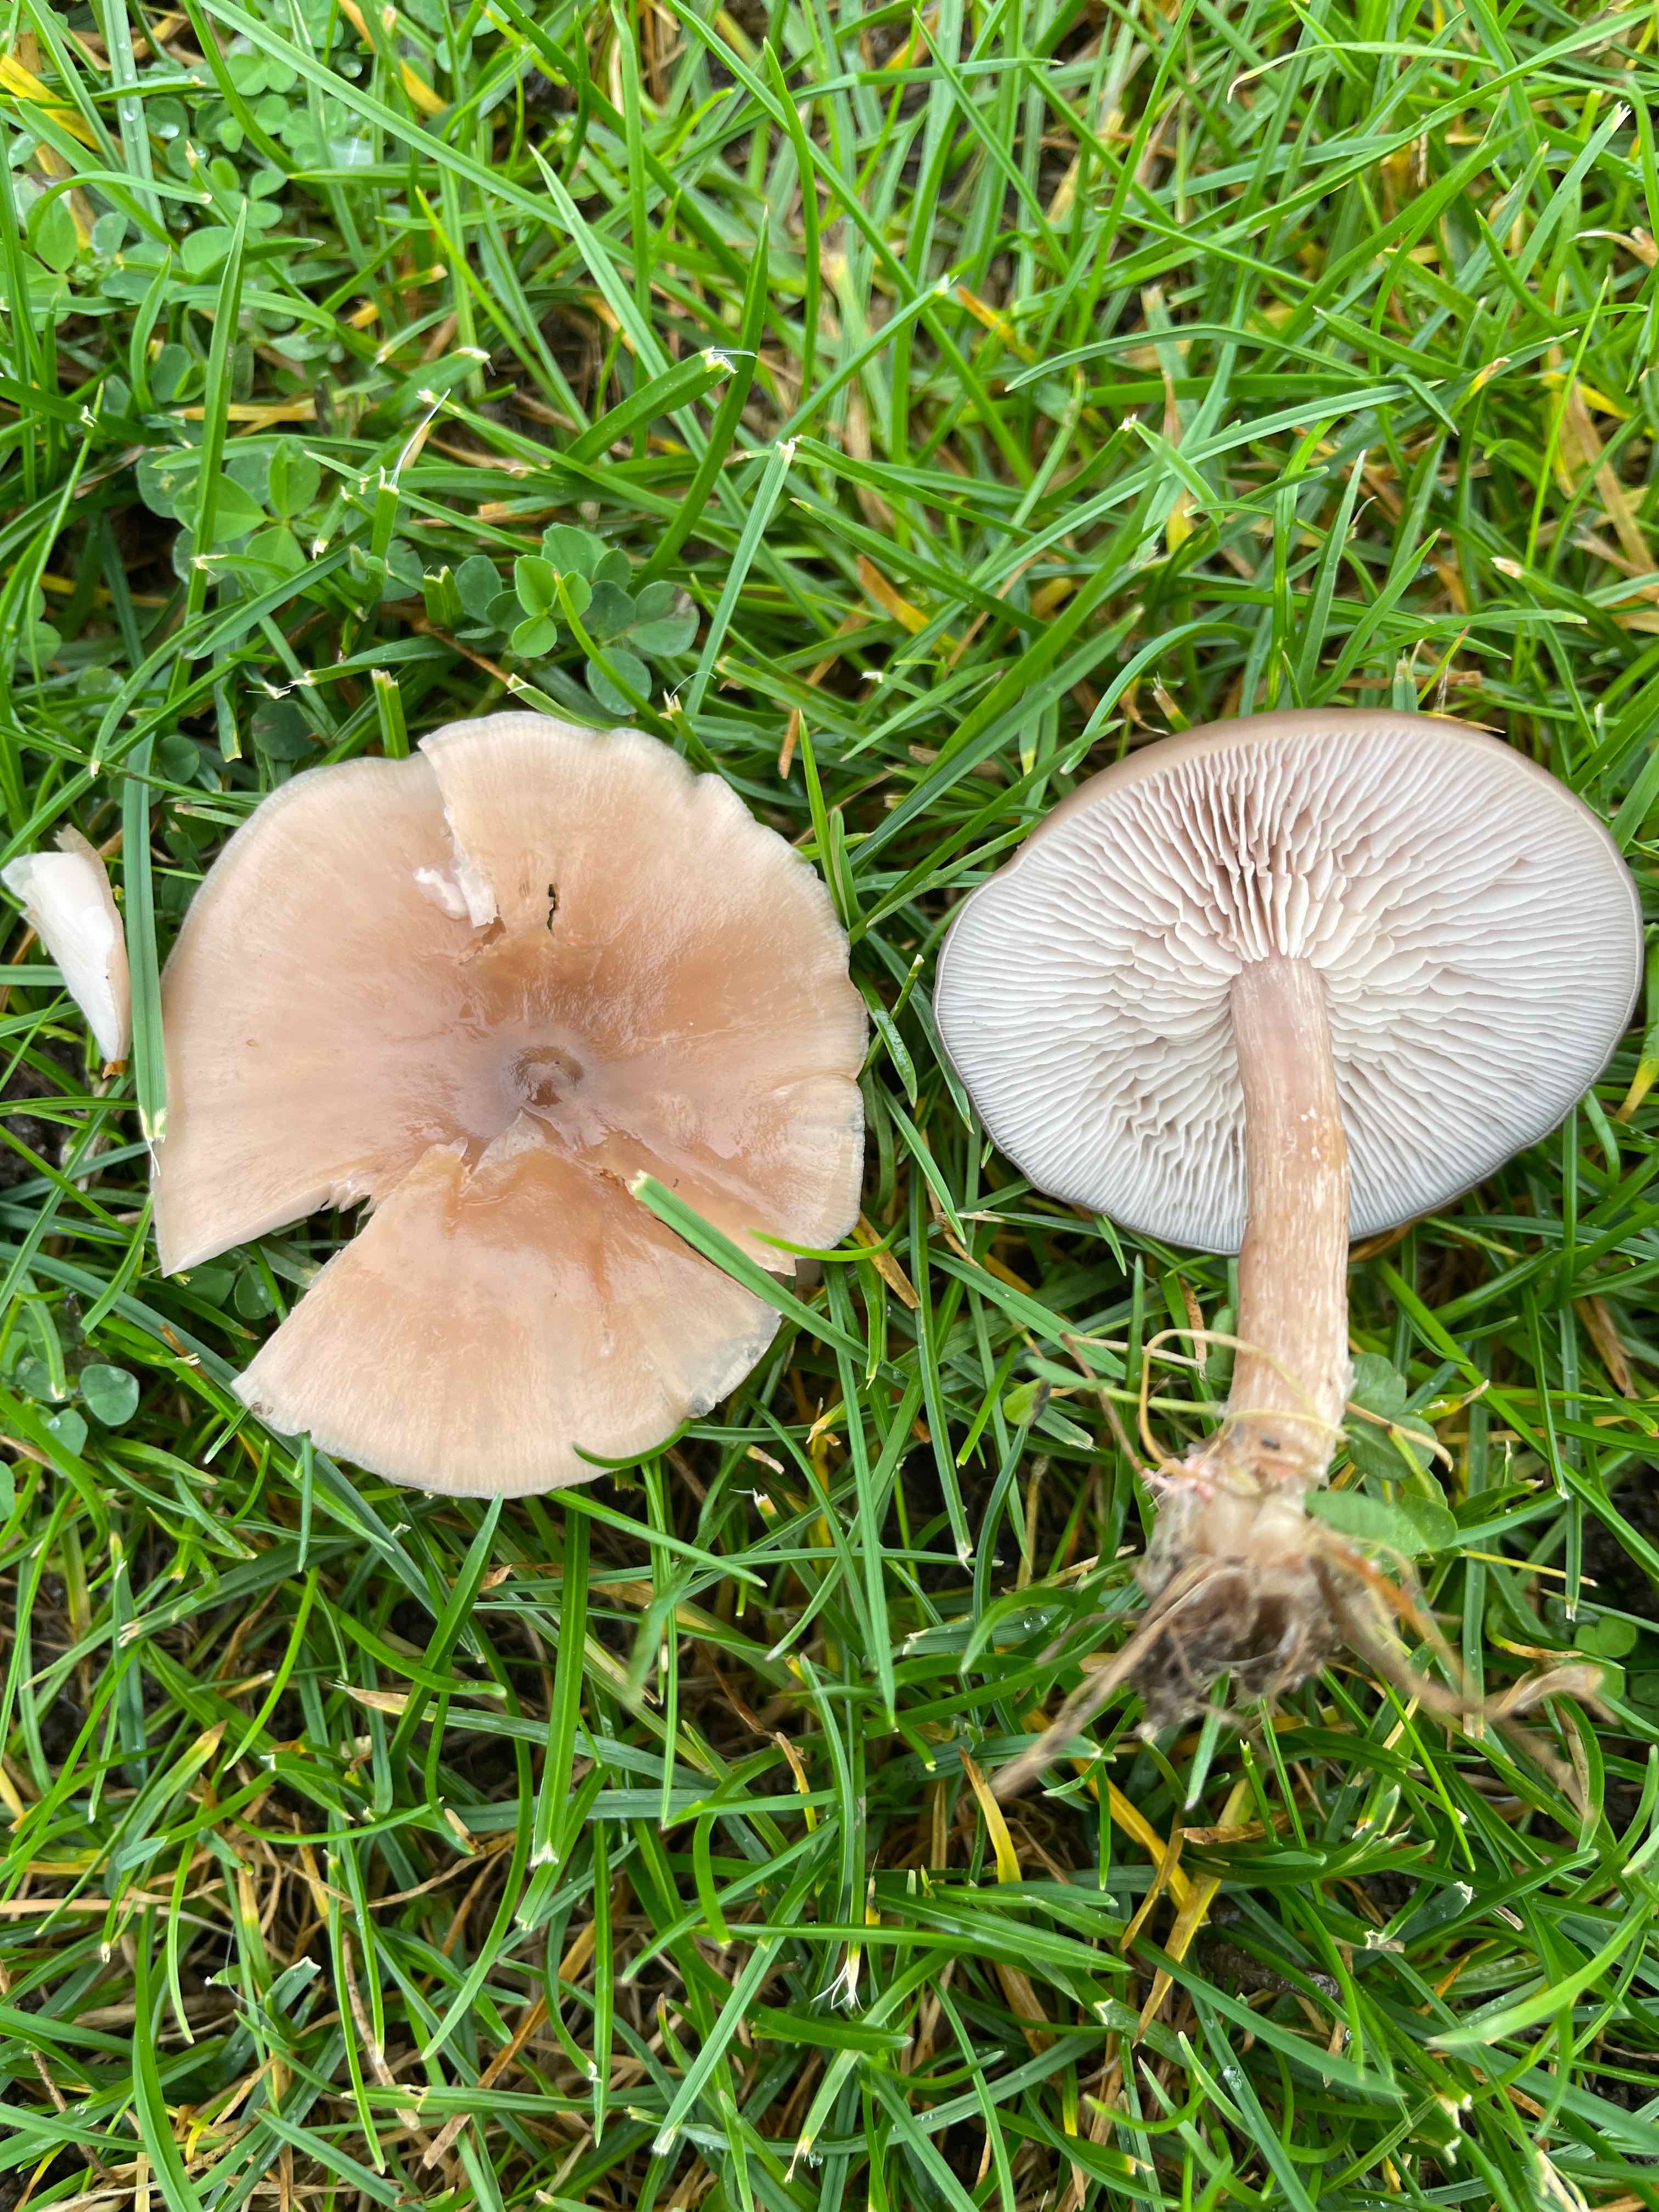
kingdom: Fungi
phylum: Basidiomycota
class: Agaricomycetes
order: Agaricales
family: Tricholomataceae
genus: Melanoleuca
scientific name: Melanoleuca
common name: munkehat
